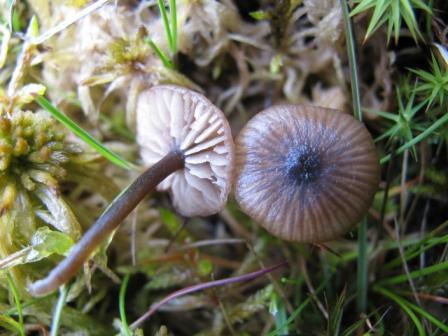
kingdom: Fungi
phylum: Basidiomycota
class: Agaricomycetes
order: Agaricales
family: Lyophyllaceae
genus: Sphagnurus
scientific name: Sphagnurus paluster
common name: tørvemos-gråblad
